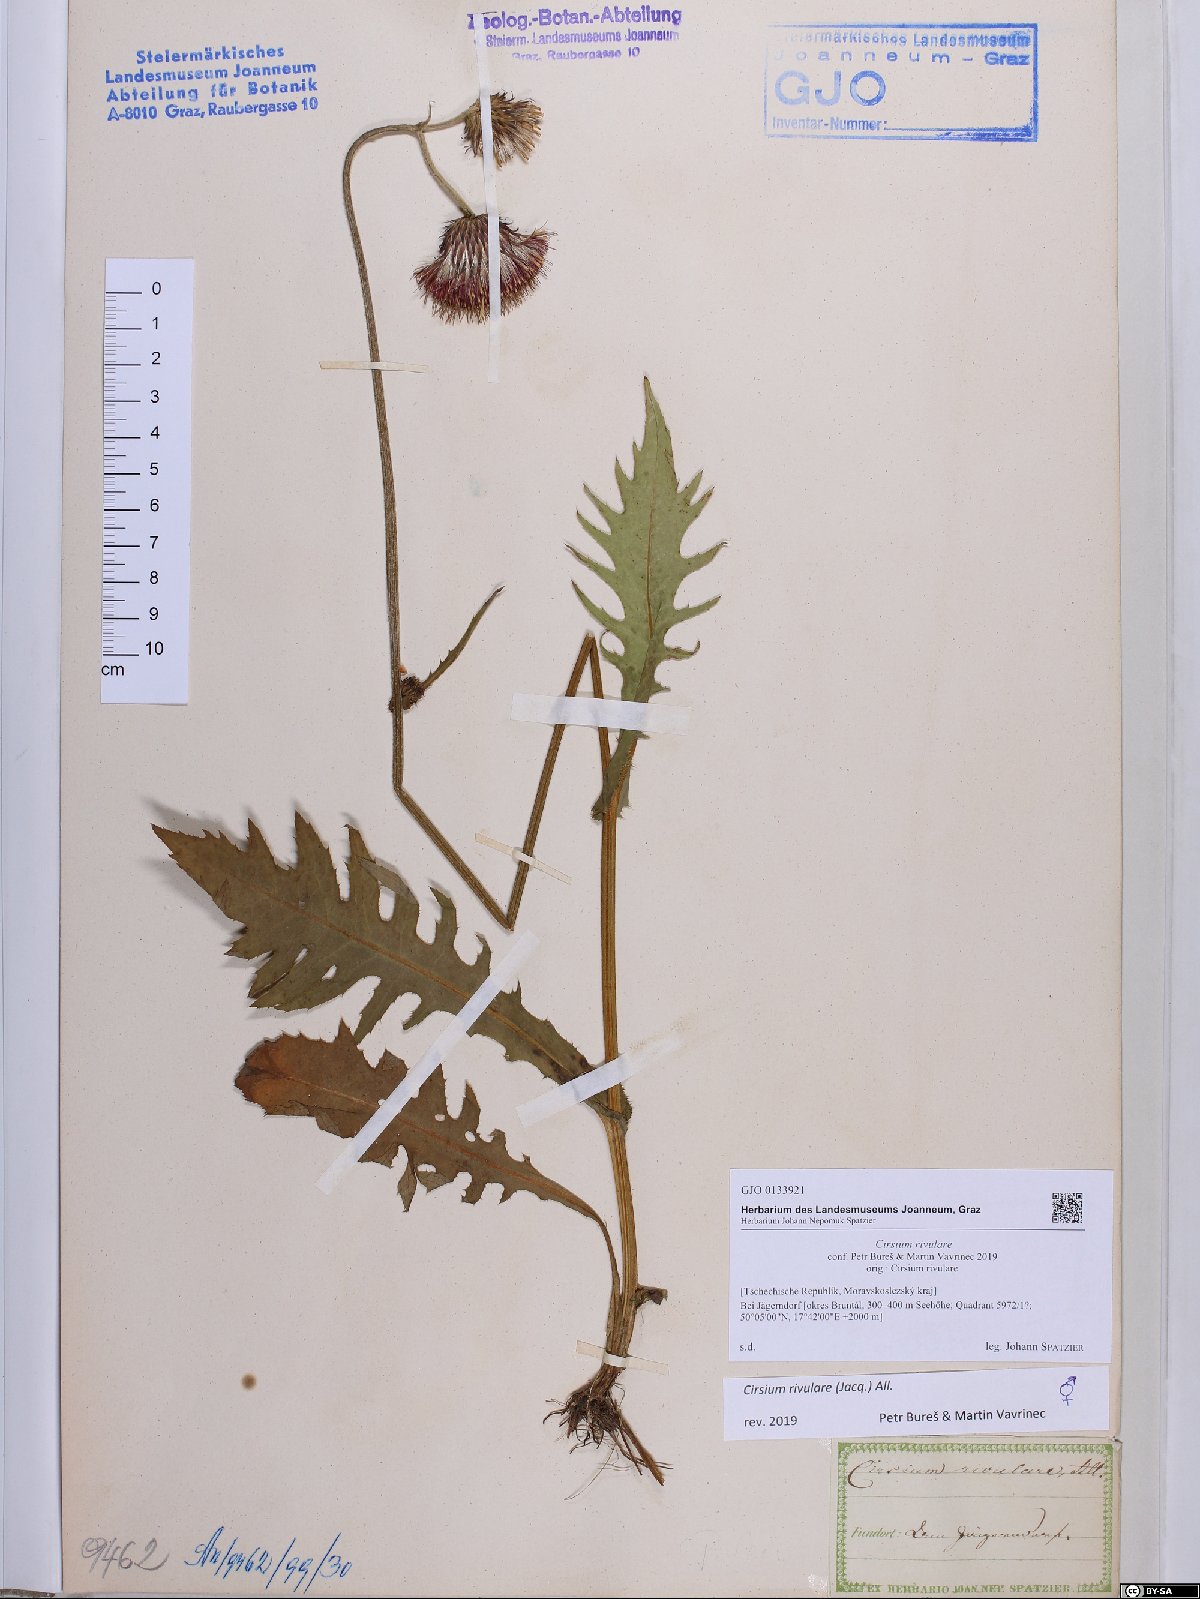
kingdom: Plantae
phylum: Tracheophyta
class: Magnoliopsida
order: Asterales
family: Asteraceae
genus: Cirsium
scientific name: Cirsium rivulare
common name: Brook thistle
